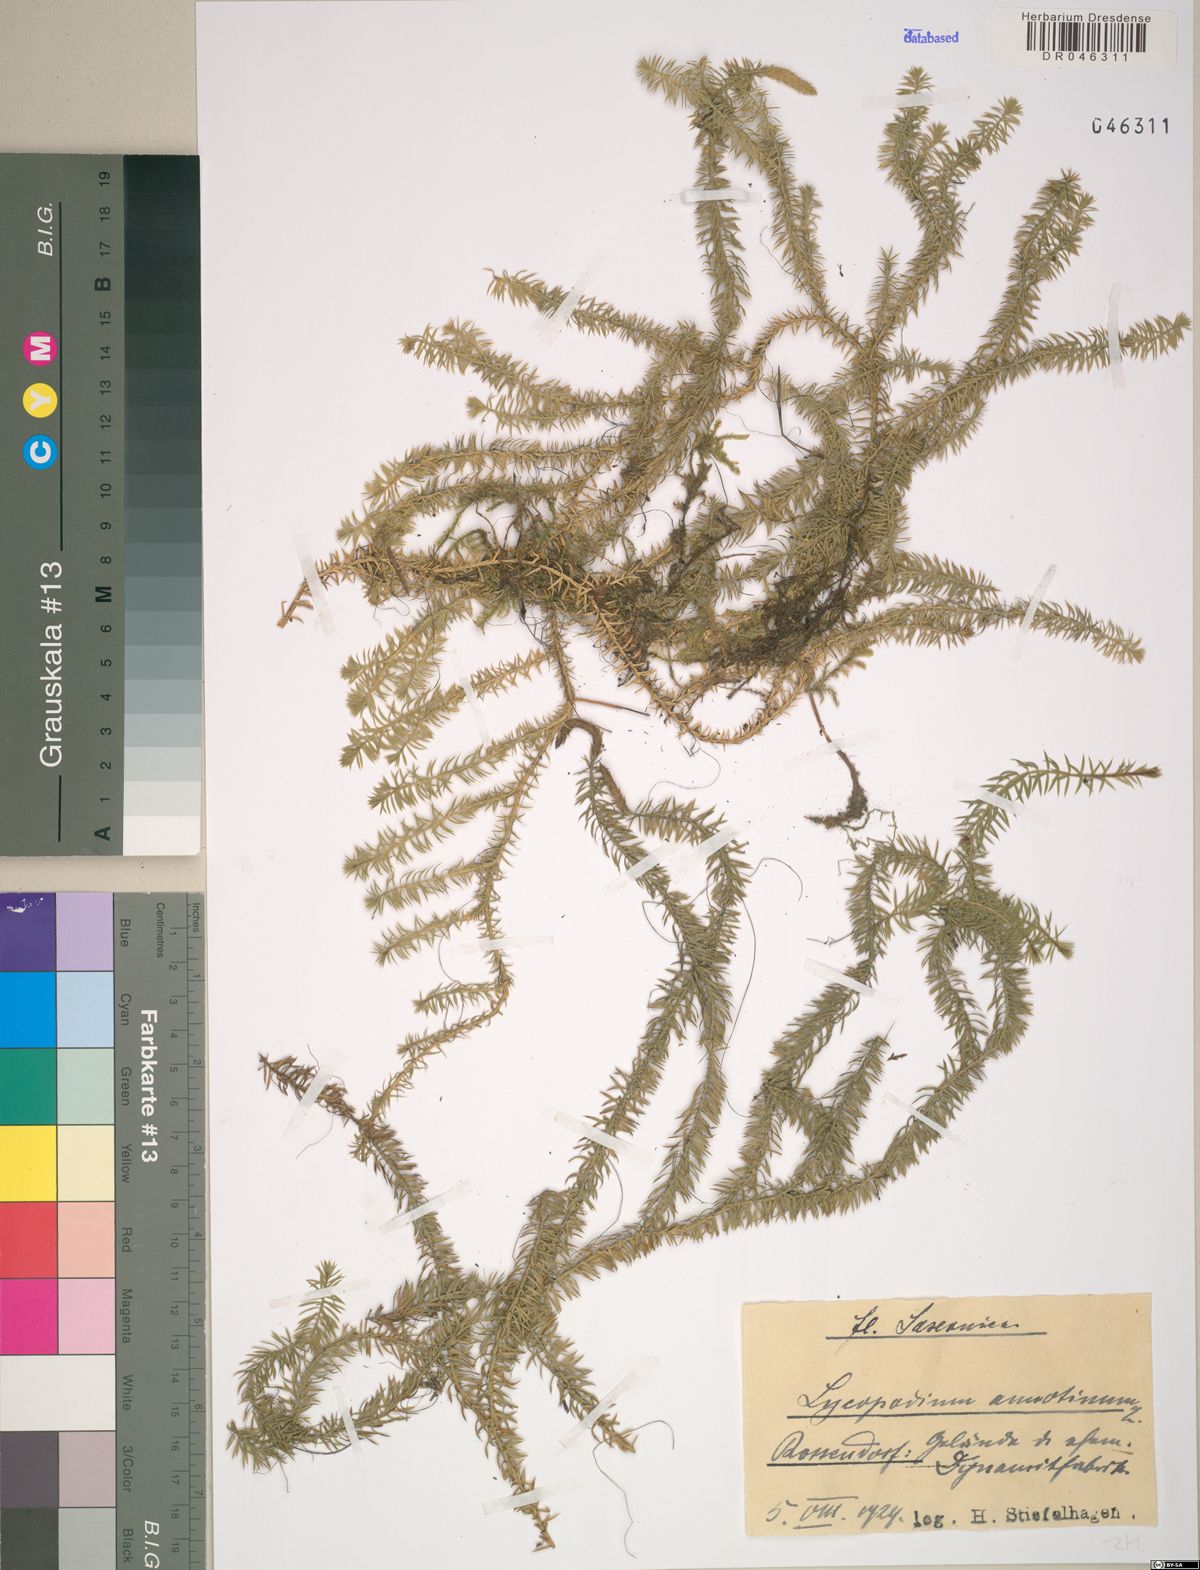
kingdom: Plantae
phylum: Tracheophyta
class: Lycopodiopsida
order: Lycopodiales
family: Lycopodiaceae
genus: Spinulum
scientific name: Spinulum annotinum
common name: Interrupted club-moss
